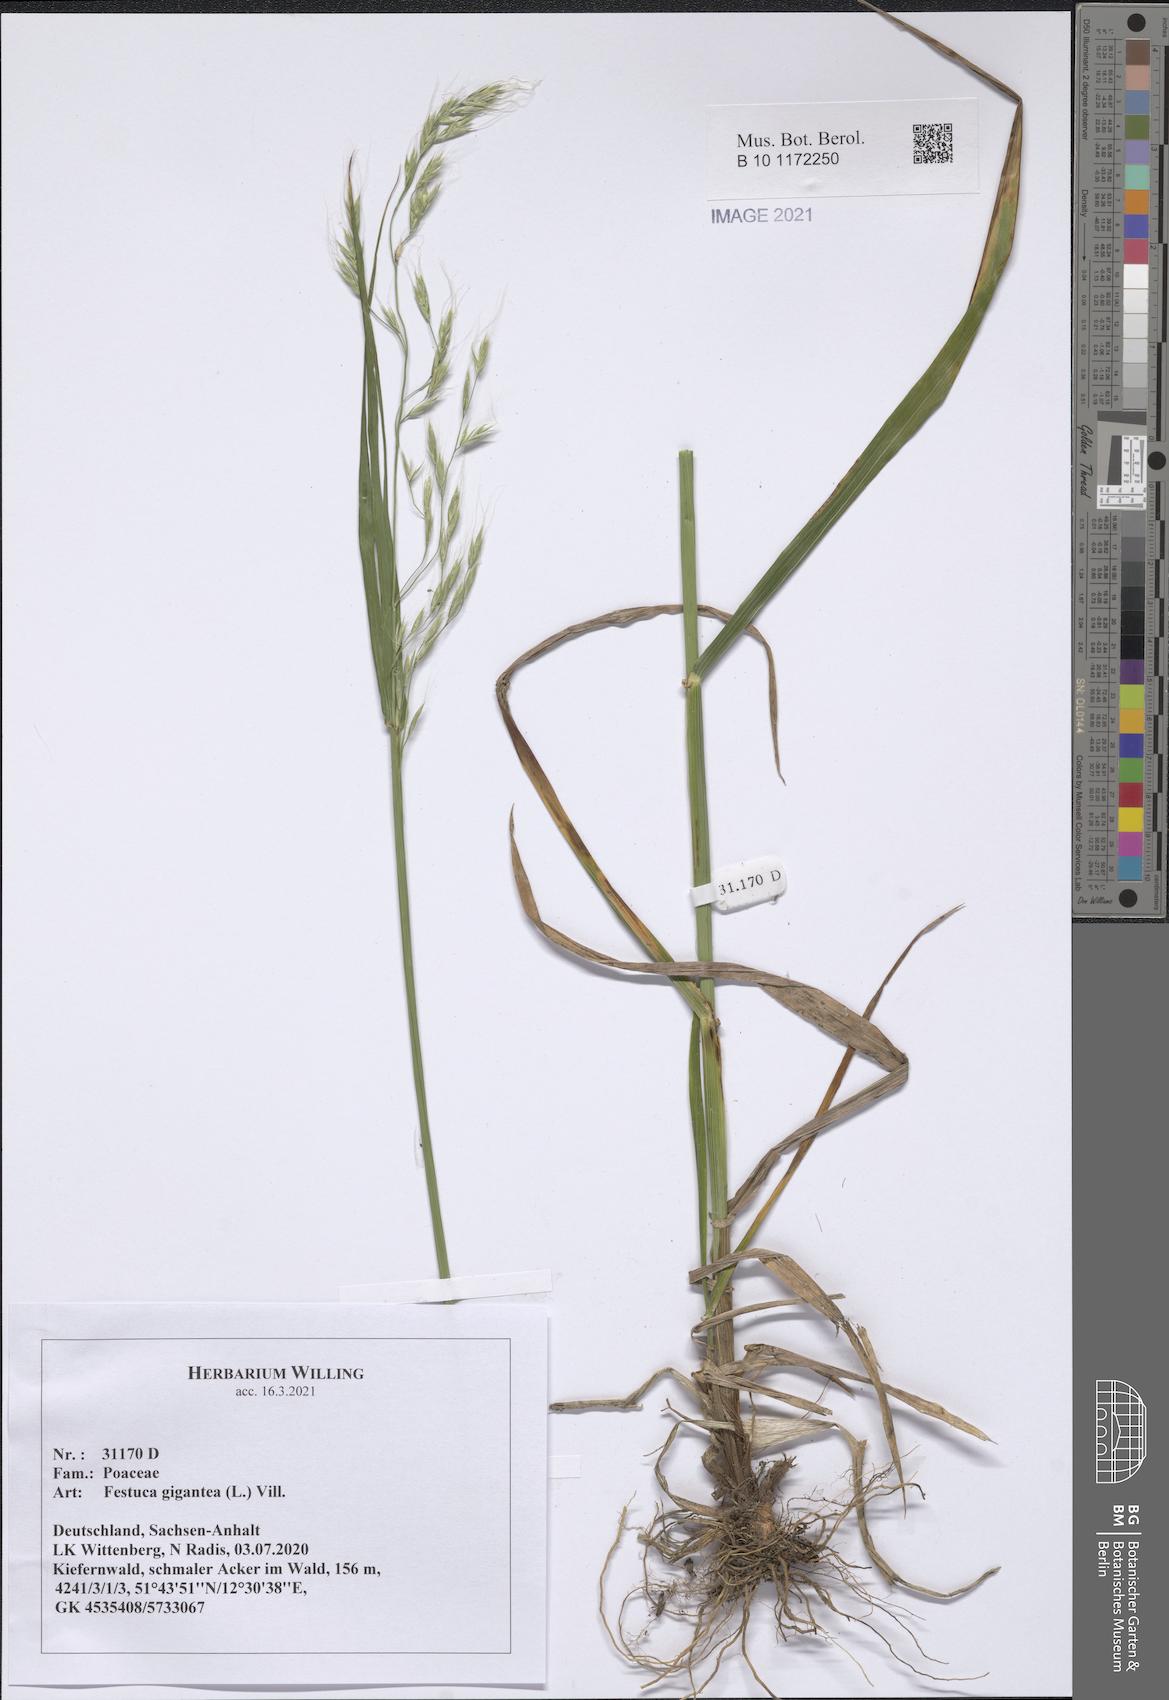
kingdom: Plantae
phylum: Tracheophyta
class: Liliopsida
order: Poales
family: Poaceae
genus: Lolium
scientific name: Lolium giganteum
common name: Giant fescue
